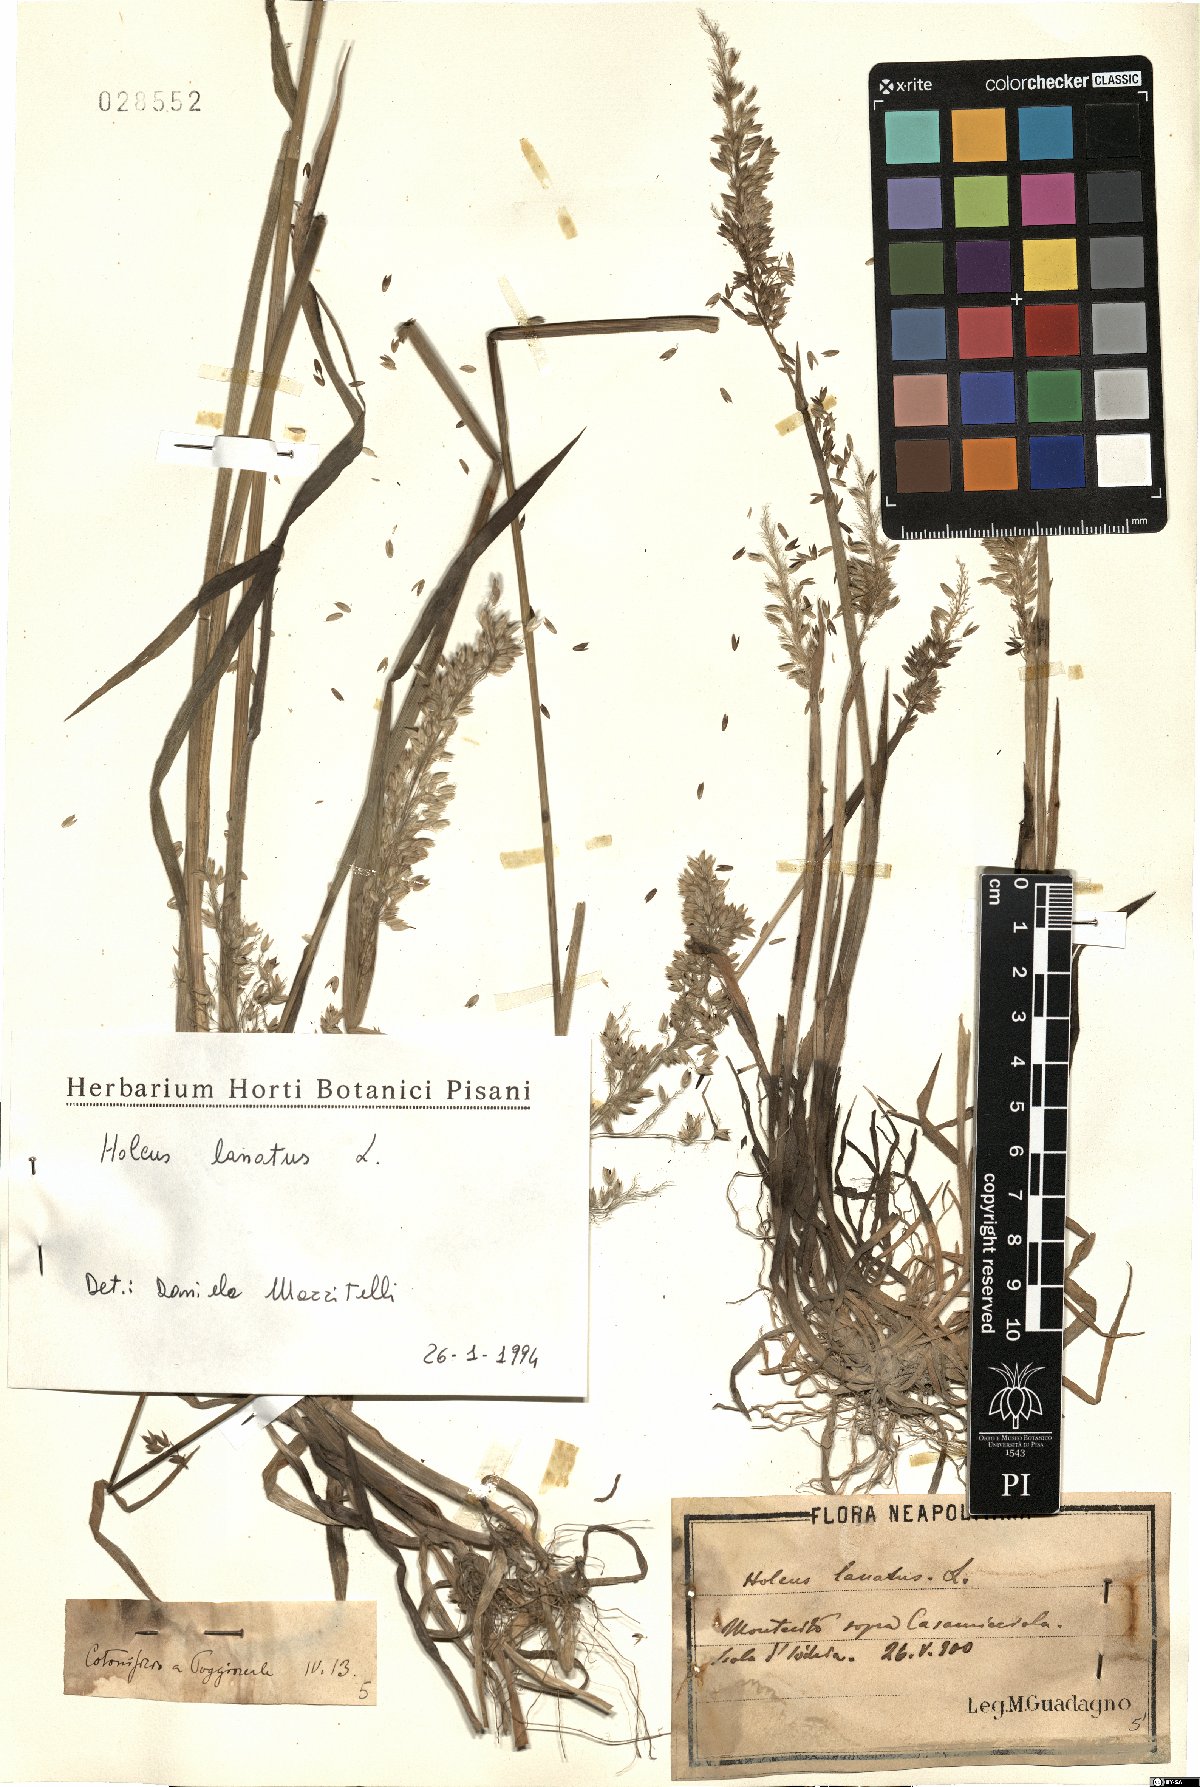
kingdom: Plantae
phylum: Tracheophyta
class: Liliopsida
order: Poales
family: Poaceae
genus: Holcus
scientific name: Holcus lanatus
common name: Yorkshire-fog
